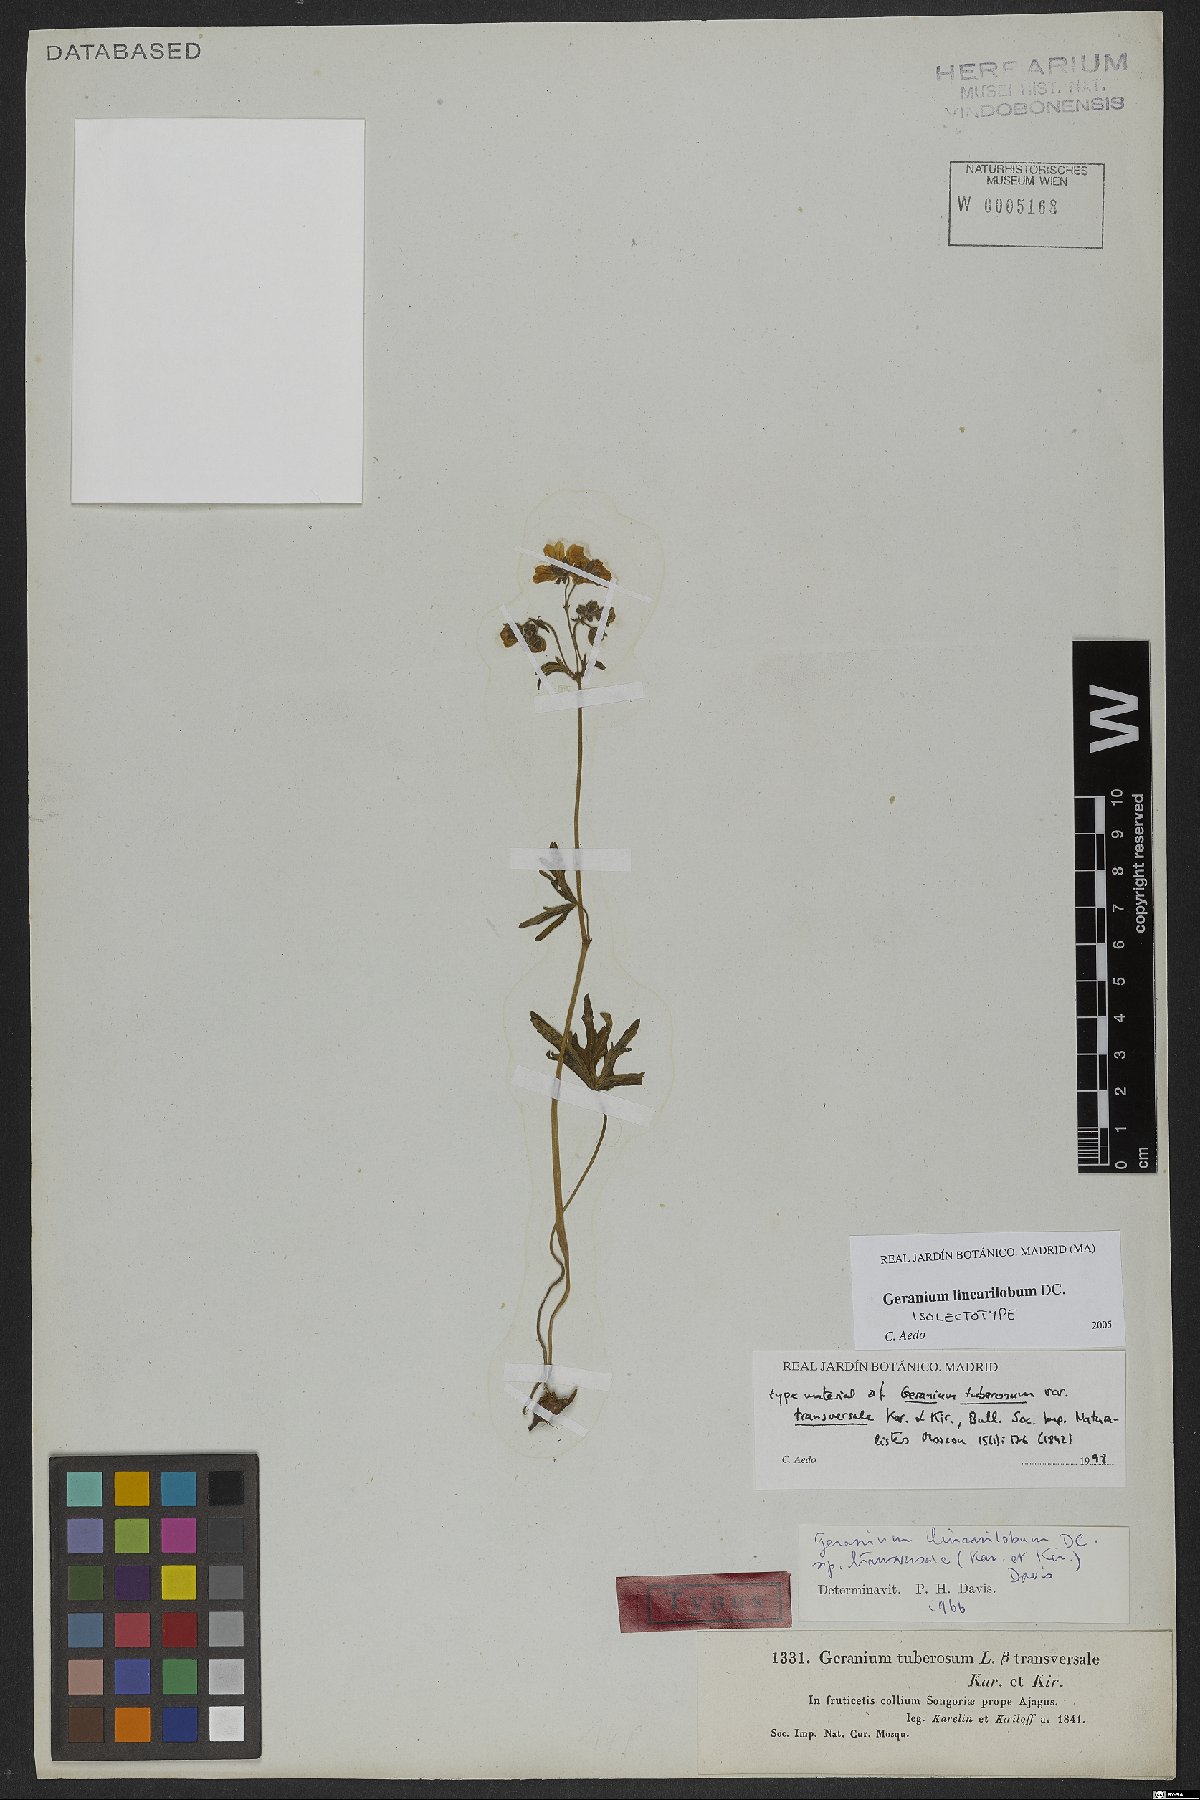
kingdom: Plantae
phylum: Tracheophyta
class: Magnoliopsida
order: Geraniales
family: Geraniaceae
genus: Geranium
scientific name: Geranium linearilobum
